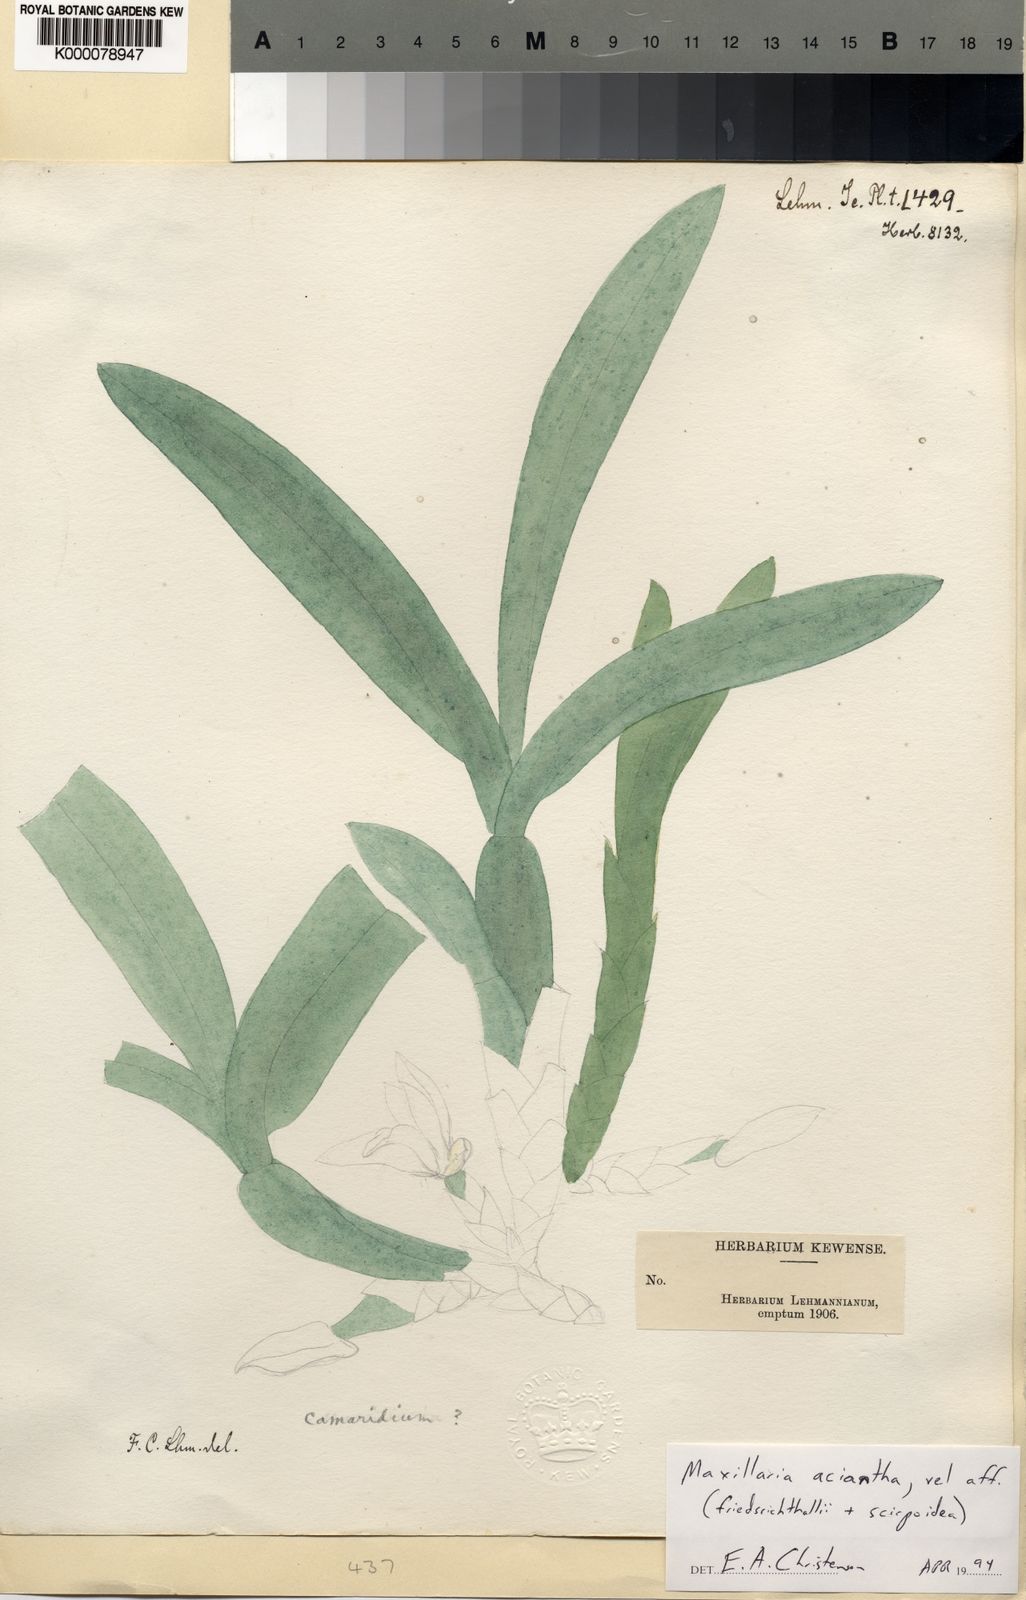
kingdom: Plantae
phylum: Tracheophyta
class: Liliopsida
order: Asparagales
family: Orchidaceae
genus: Maxillaria
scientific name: Maxillaria aciantha
